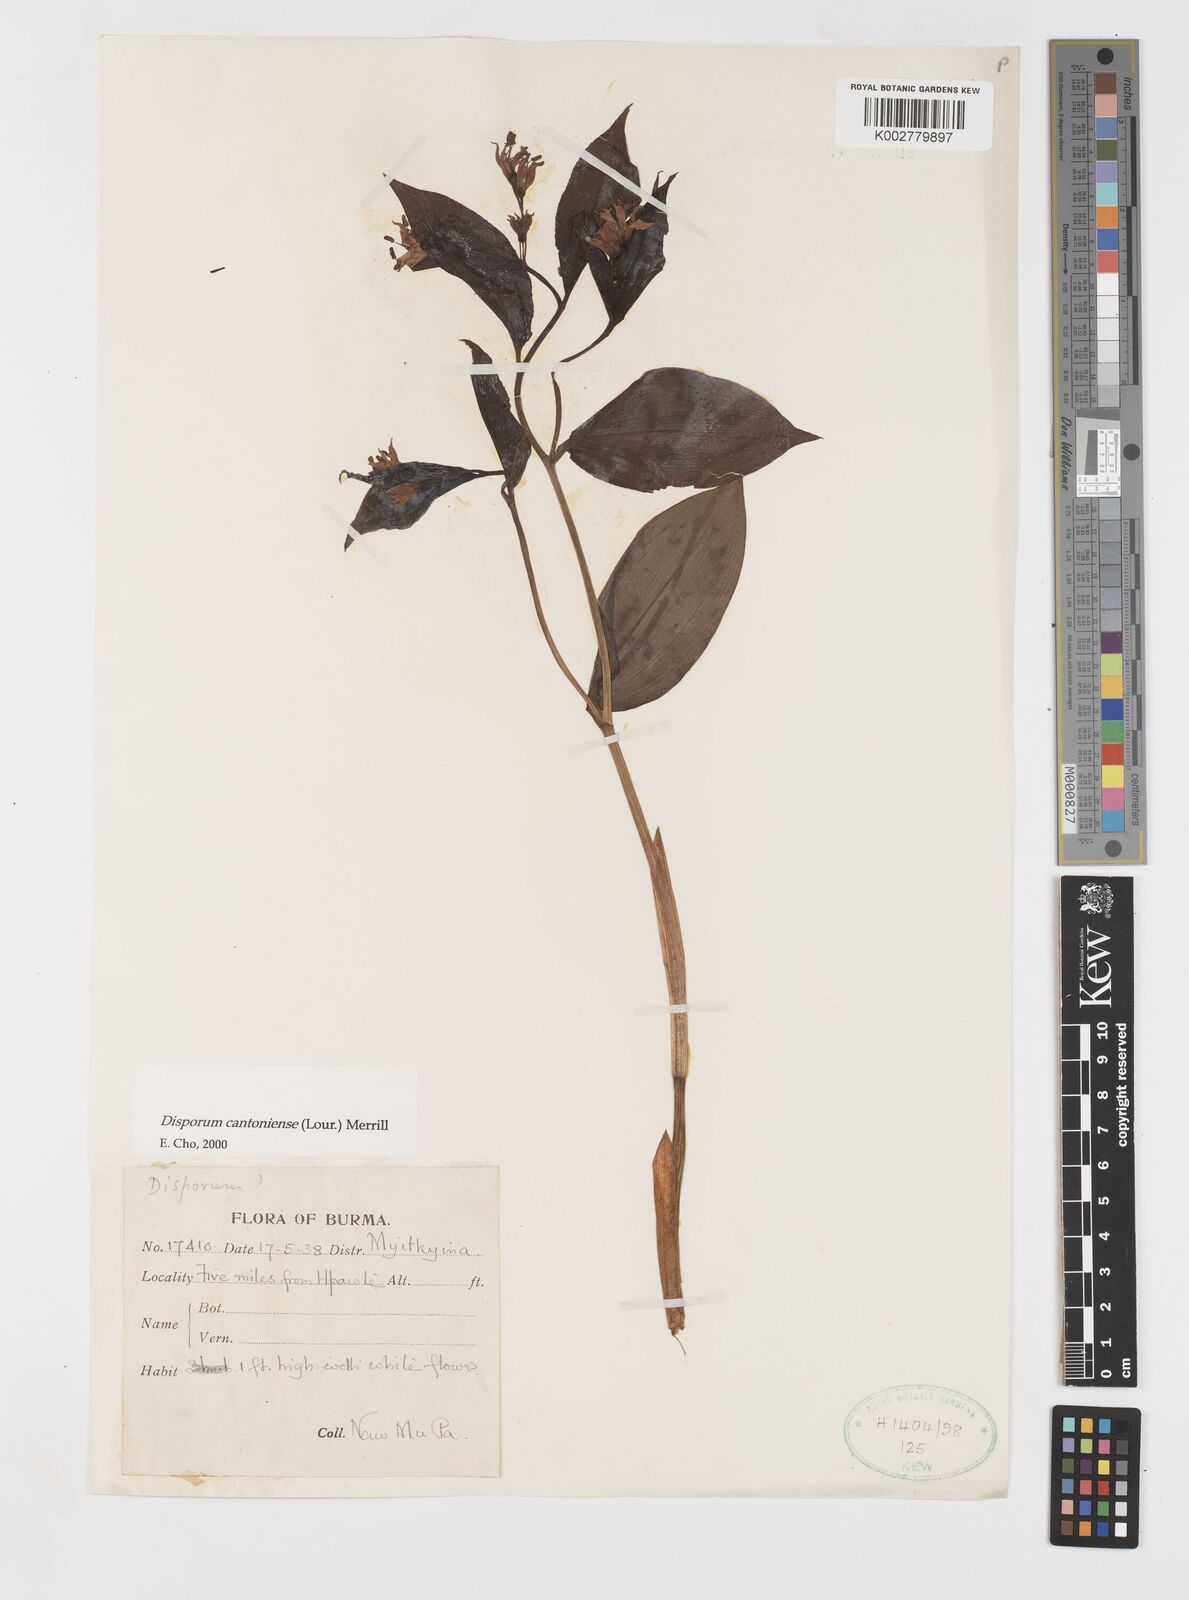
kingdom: Plantae
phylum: Tracheophyta
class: Liliopsida
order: Liliales
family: Colchicaceae
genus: Disporum
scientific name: Disporum cantoniense
